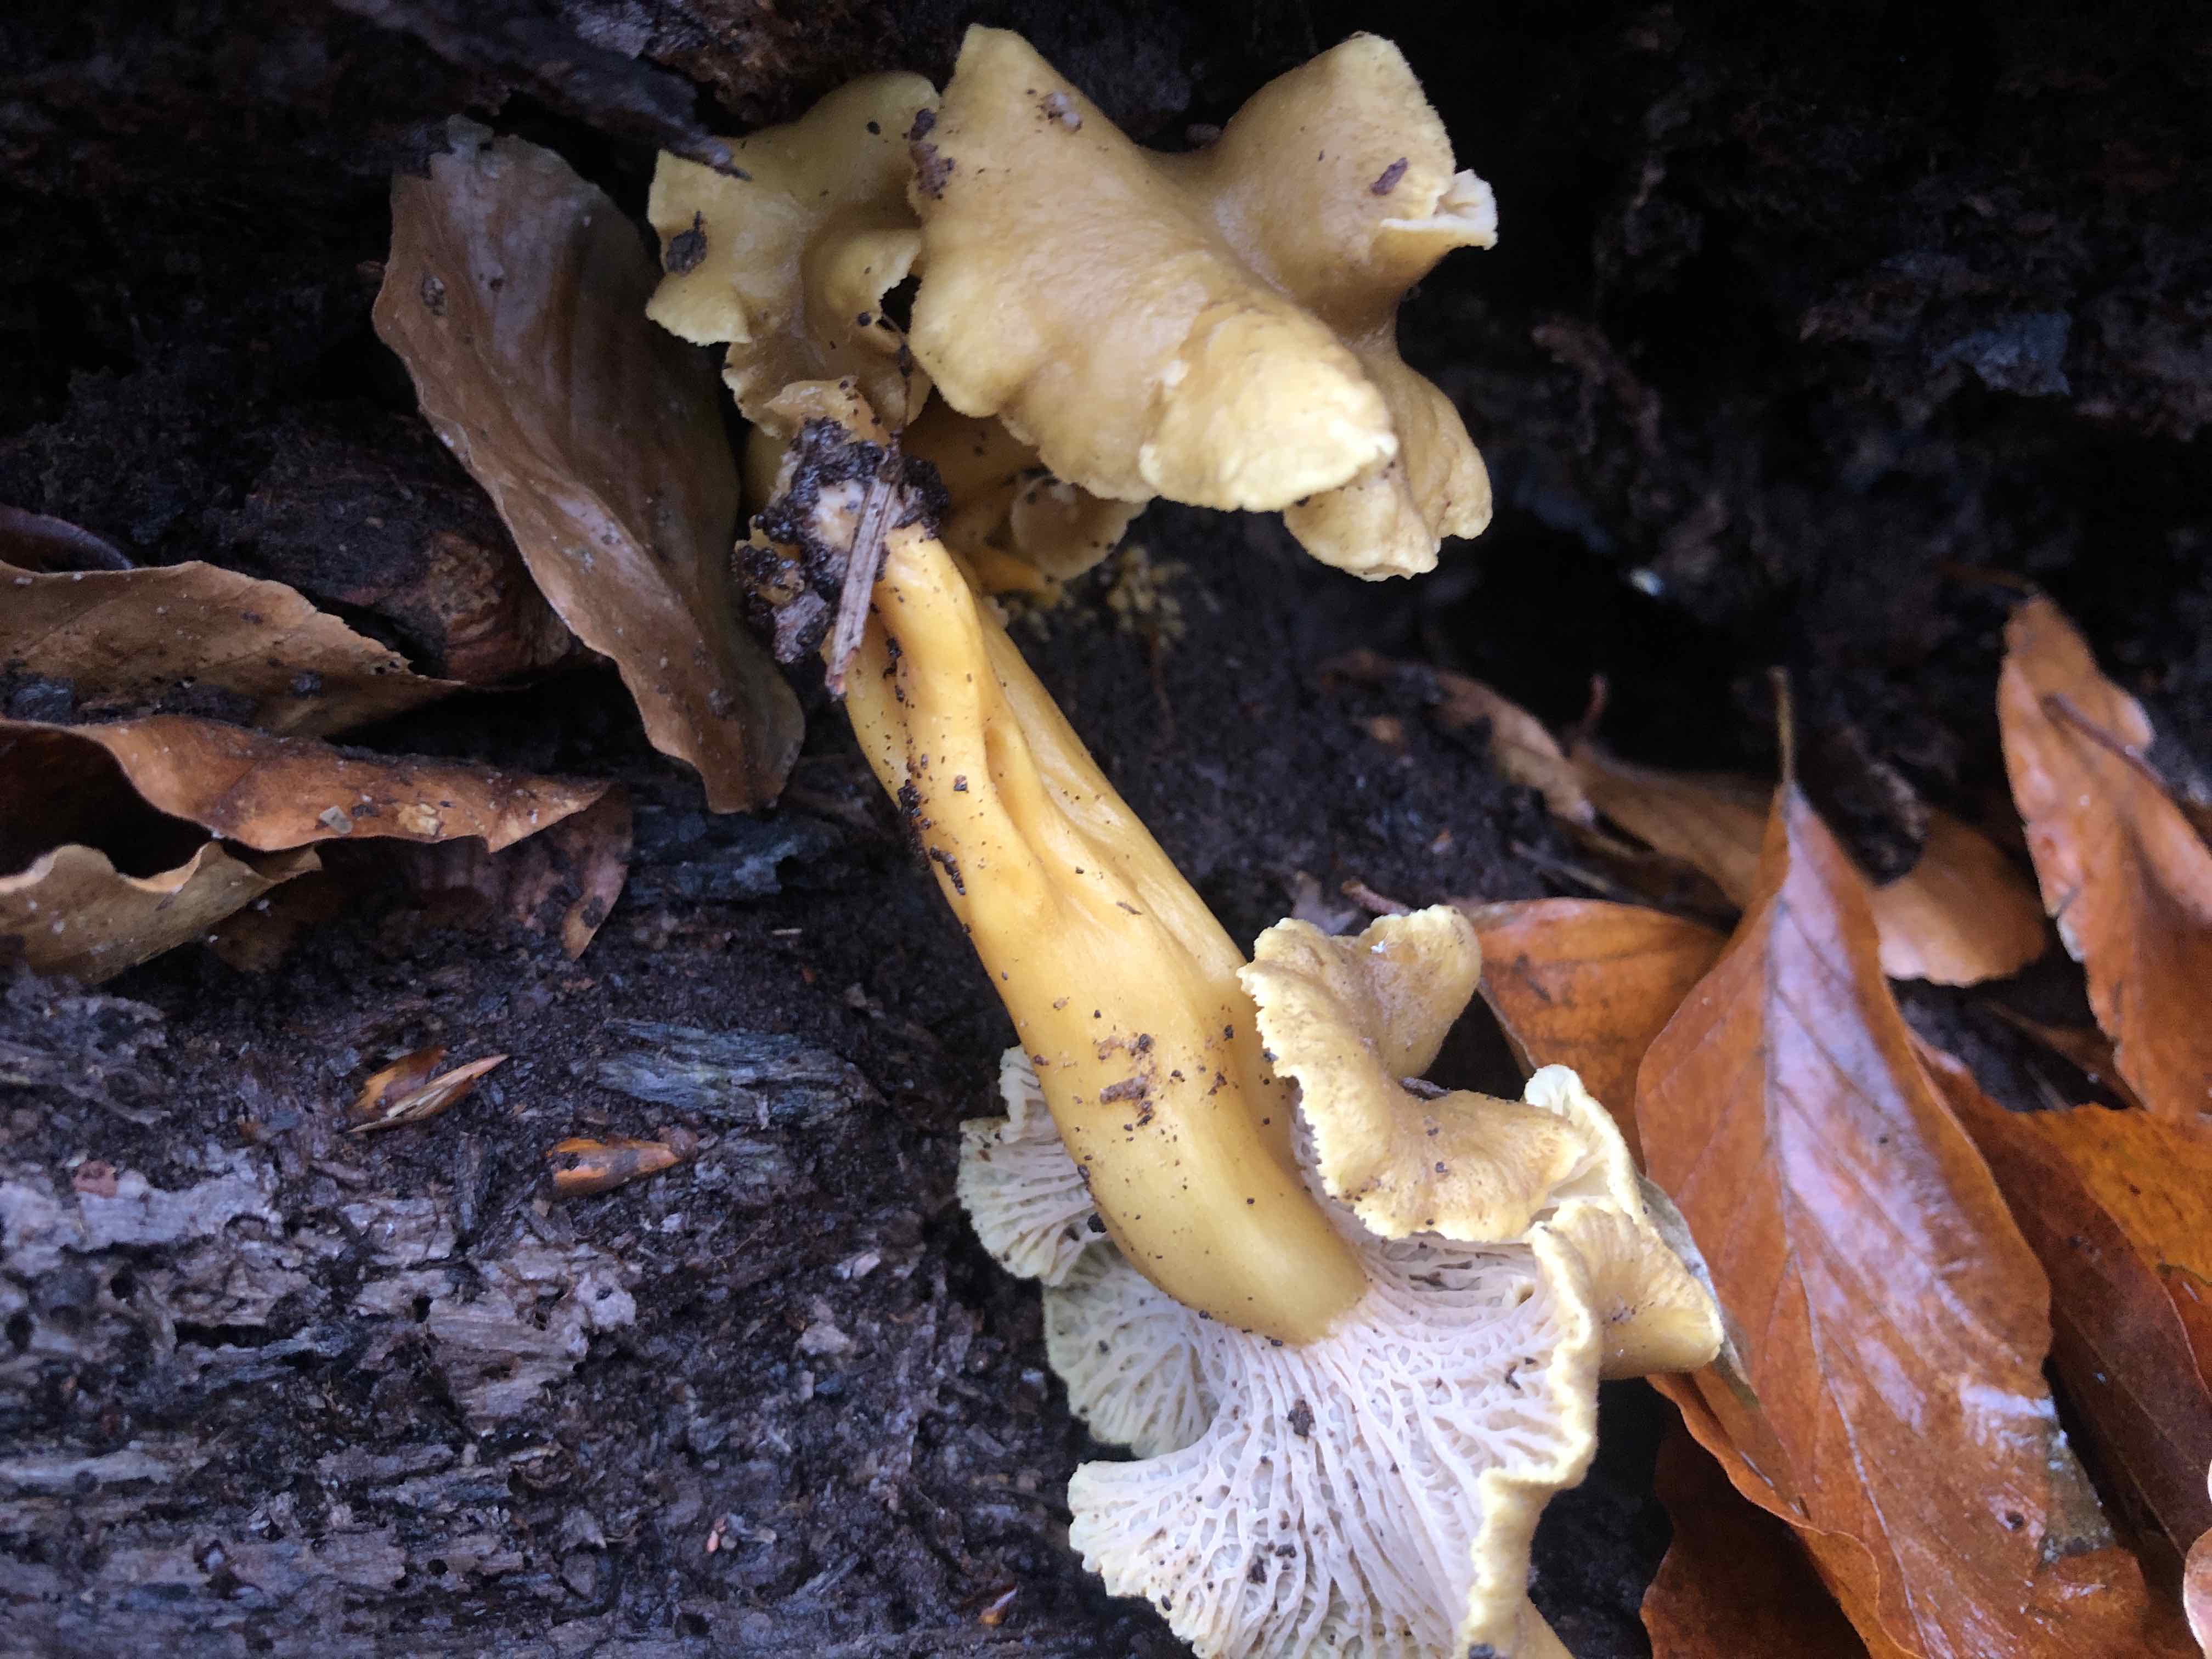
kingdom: Fungi
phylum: Basidiomycota
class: Agaricomycetes
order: Cantharellales
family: Hydnaceae
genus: Craterellus
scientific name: Craterellus tubaeformis
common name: tragt-kantarel
